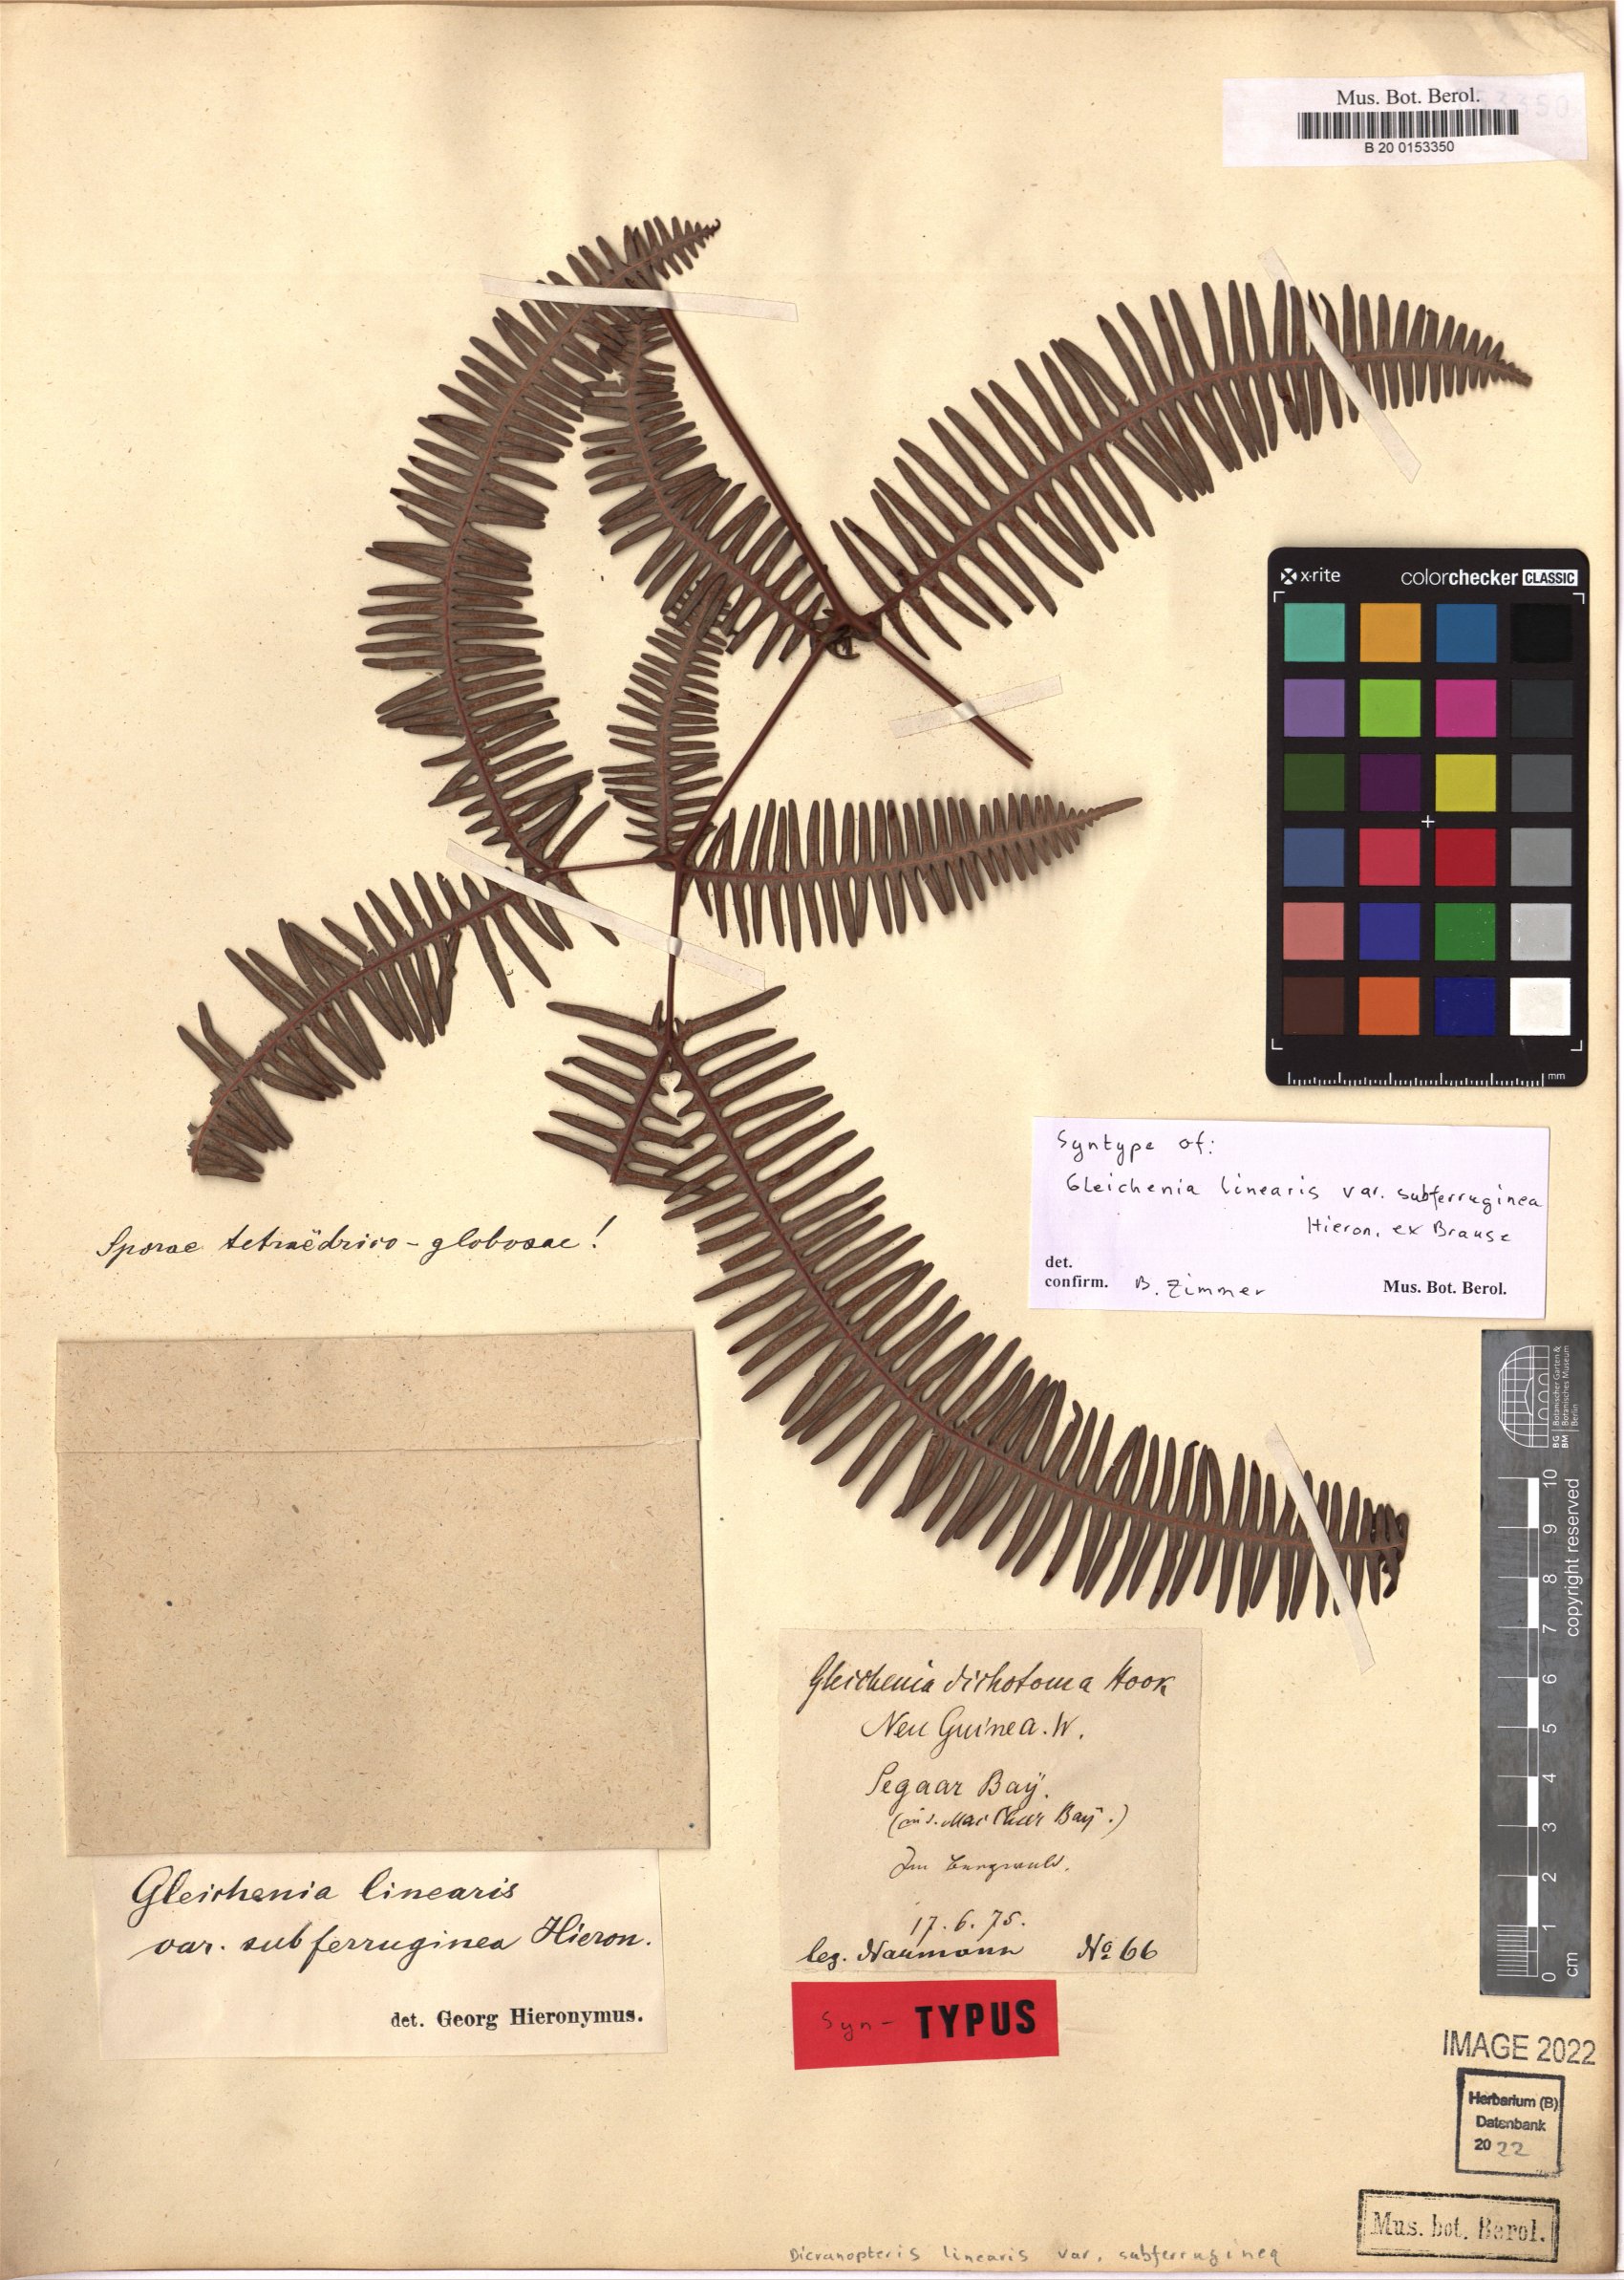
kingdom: Plantae
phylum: Tracheophyta
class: Polypodiopsida
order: Gleicheniales
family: Gleicheniaceae
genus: Dicranopteris
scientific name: Dicranopteris linearis
